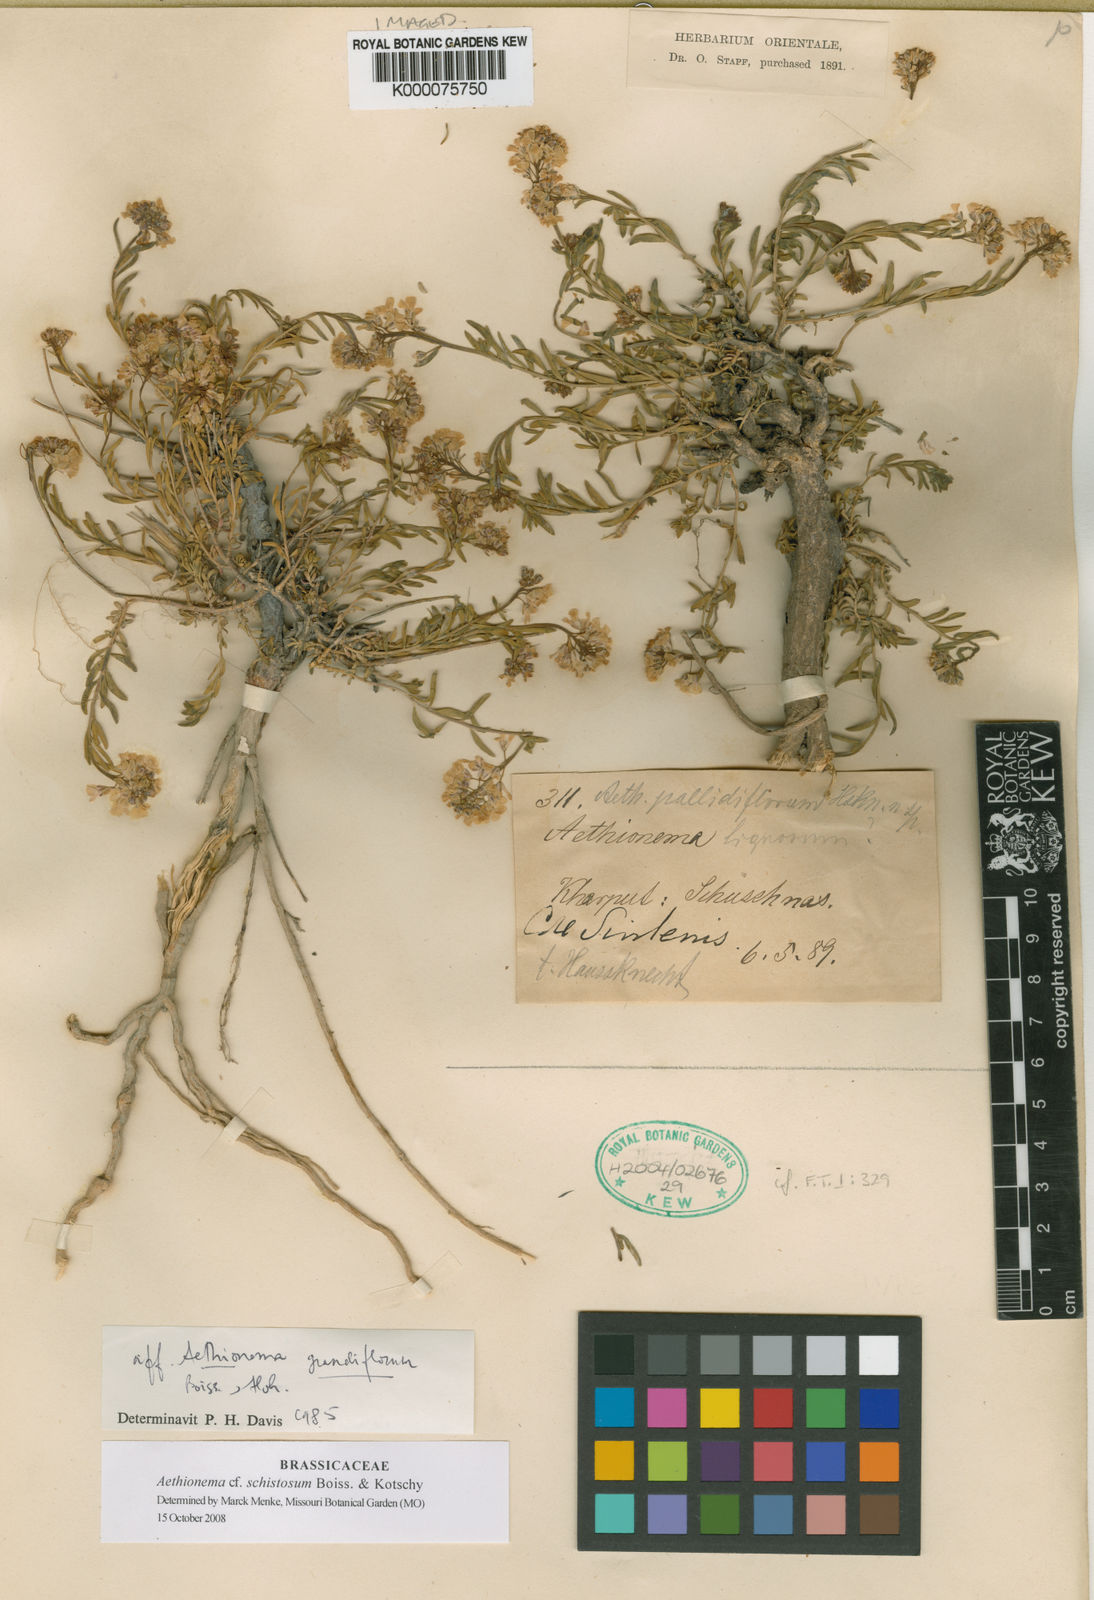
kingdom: Plantae
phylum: Tracheophyta
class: Magnoliopsida
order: Brassicales
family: Brassicaceae
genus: Aethionema
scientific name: Aethionema grandiflorum
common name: Persian stonecress
